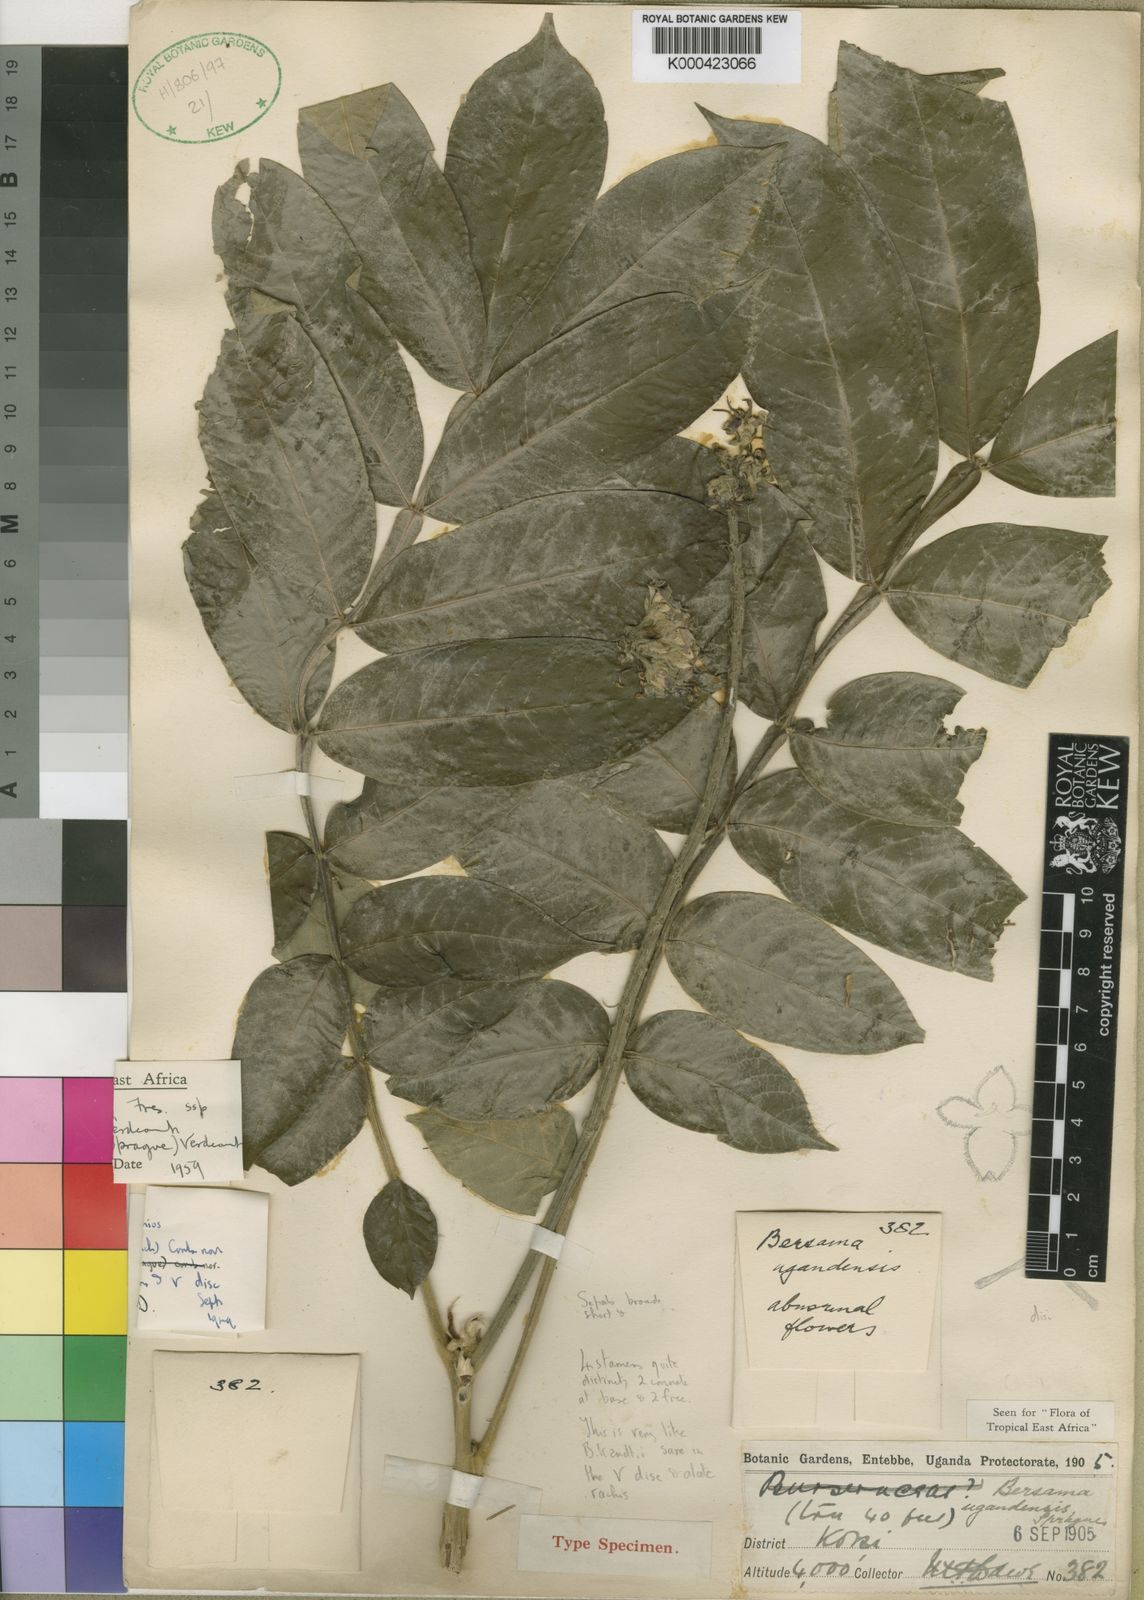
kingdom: Plantae
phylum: Tracheophyta
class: Magnoliopsida
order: Geraniales
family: Melianthaceae
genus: Bersama
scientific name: Bersama abyssinica
